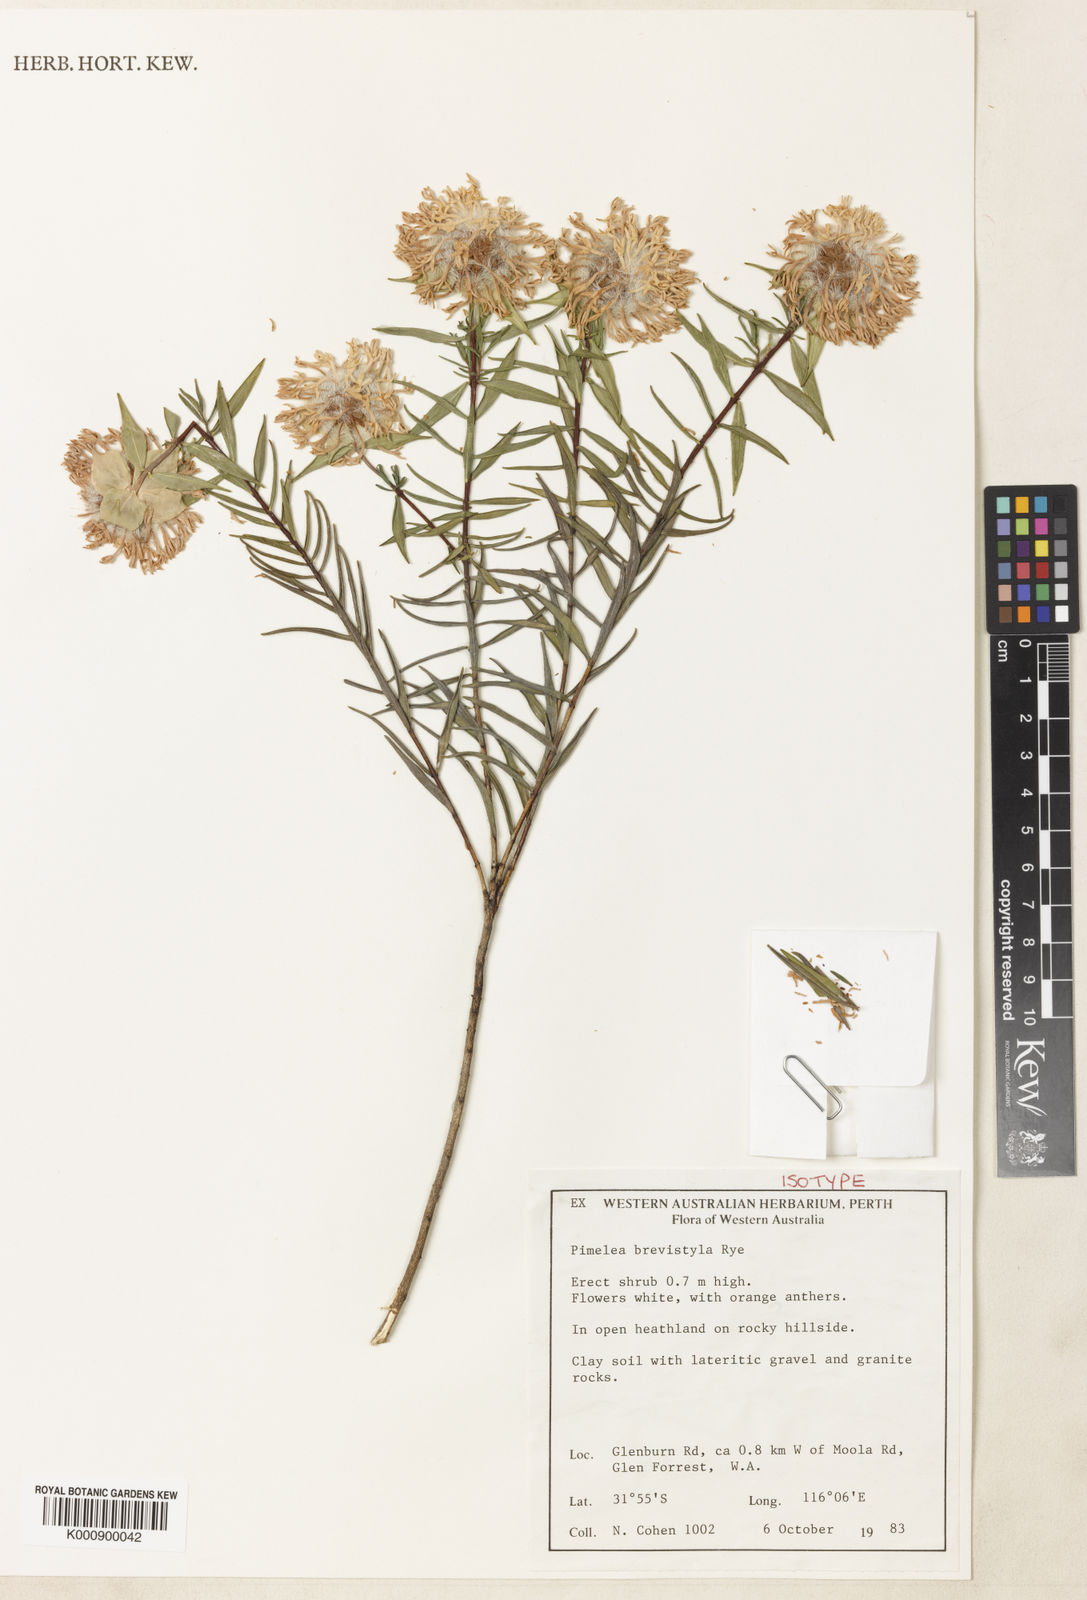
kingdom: Plantae
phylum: Tracheophyta
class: Magnoliopsida
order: Malvales
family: Thymelaeaceae
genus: Pimelea
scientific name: Pimelea brevistyla
